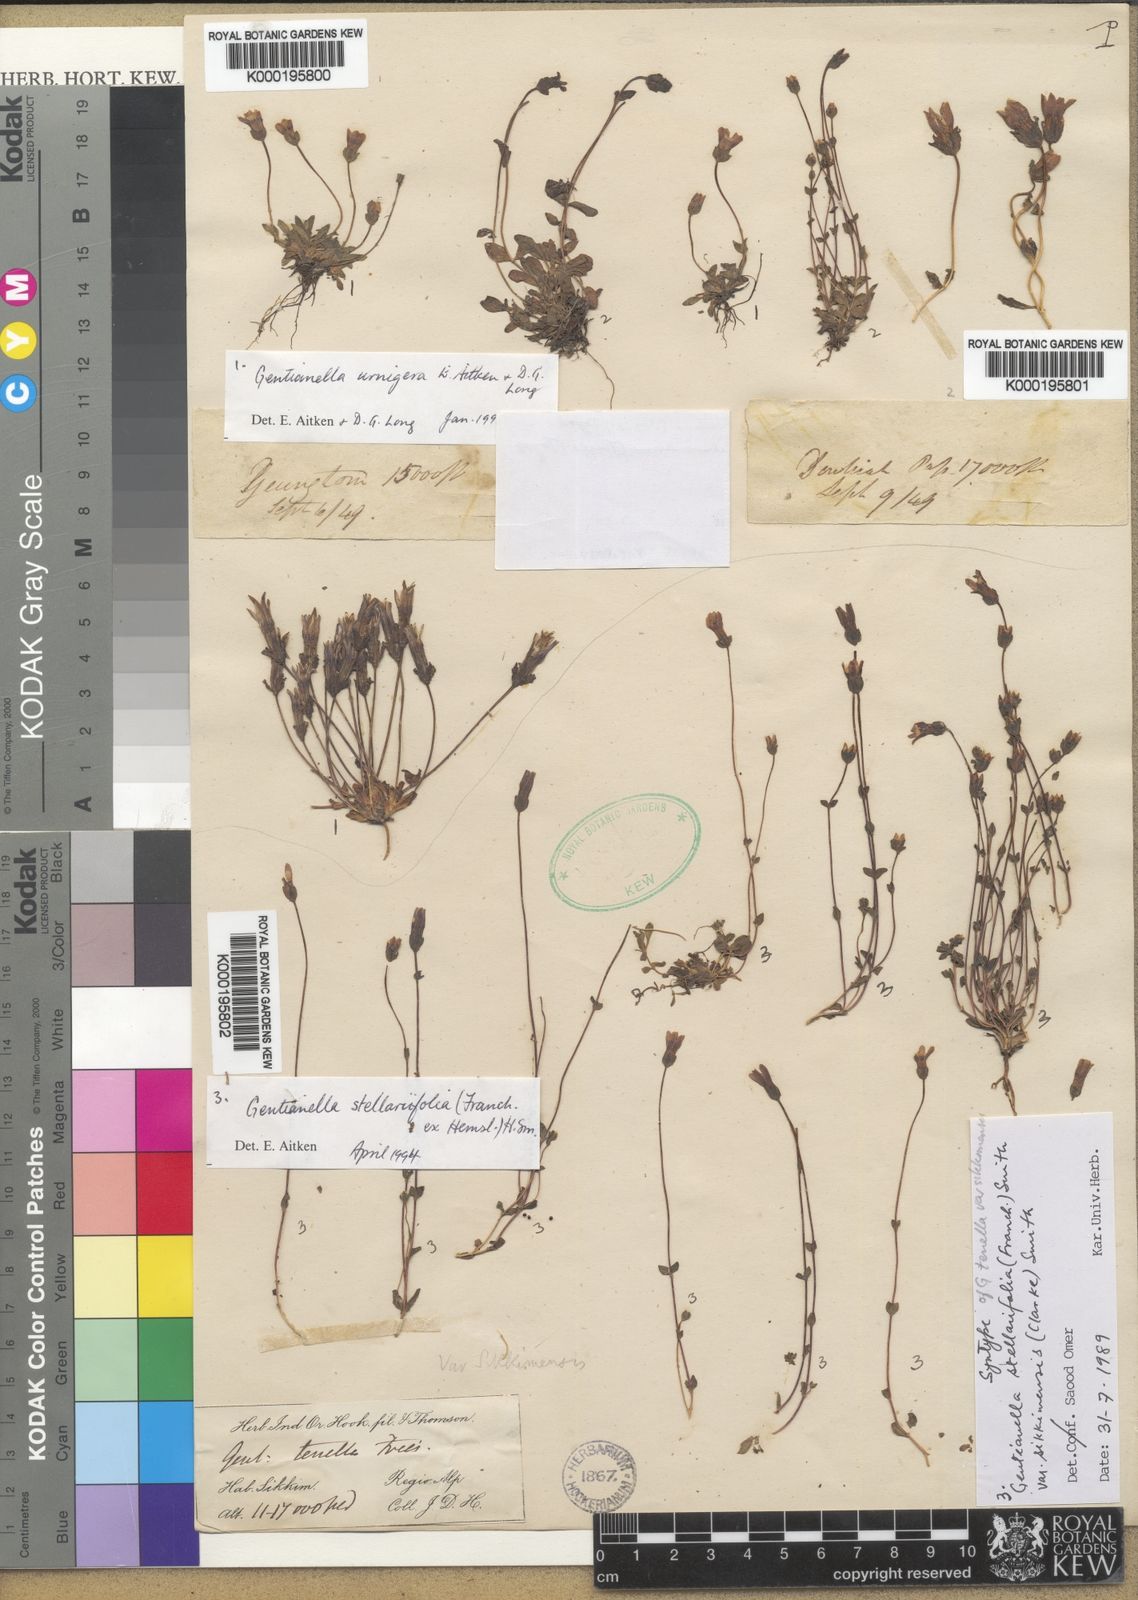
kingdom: Plantae
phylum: Tracheophyta
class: Magnoliopsida
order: Gentianales
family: Gentianaceae
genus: Comastoma
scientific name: Comastoma stellariifolium
